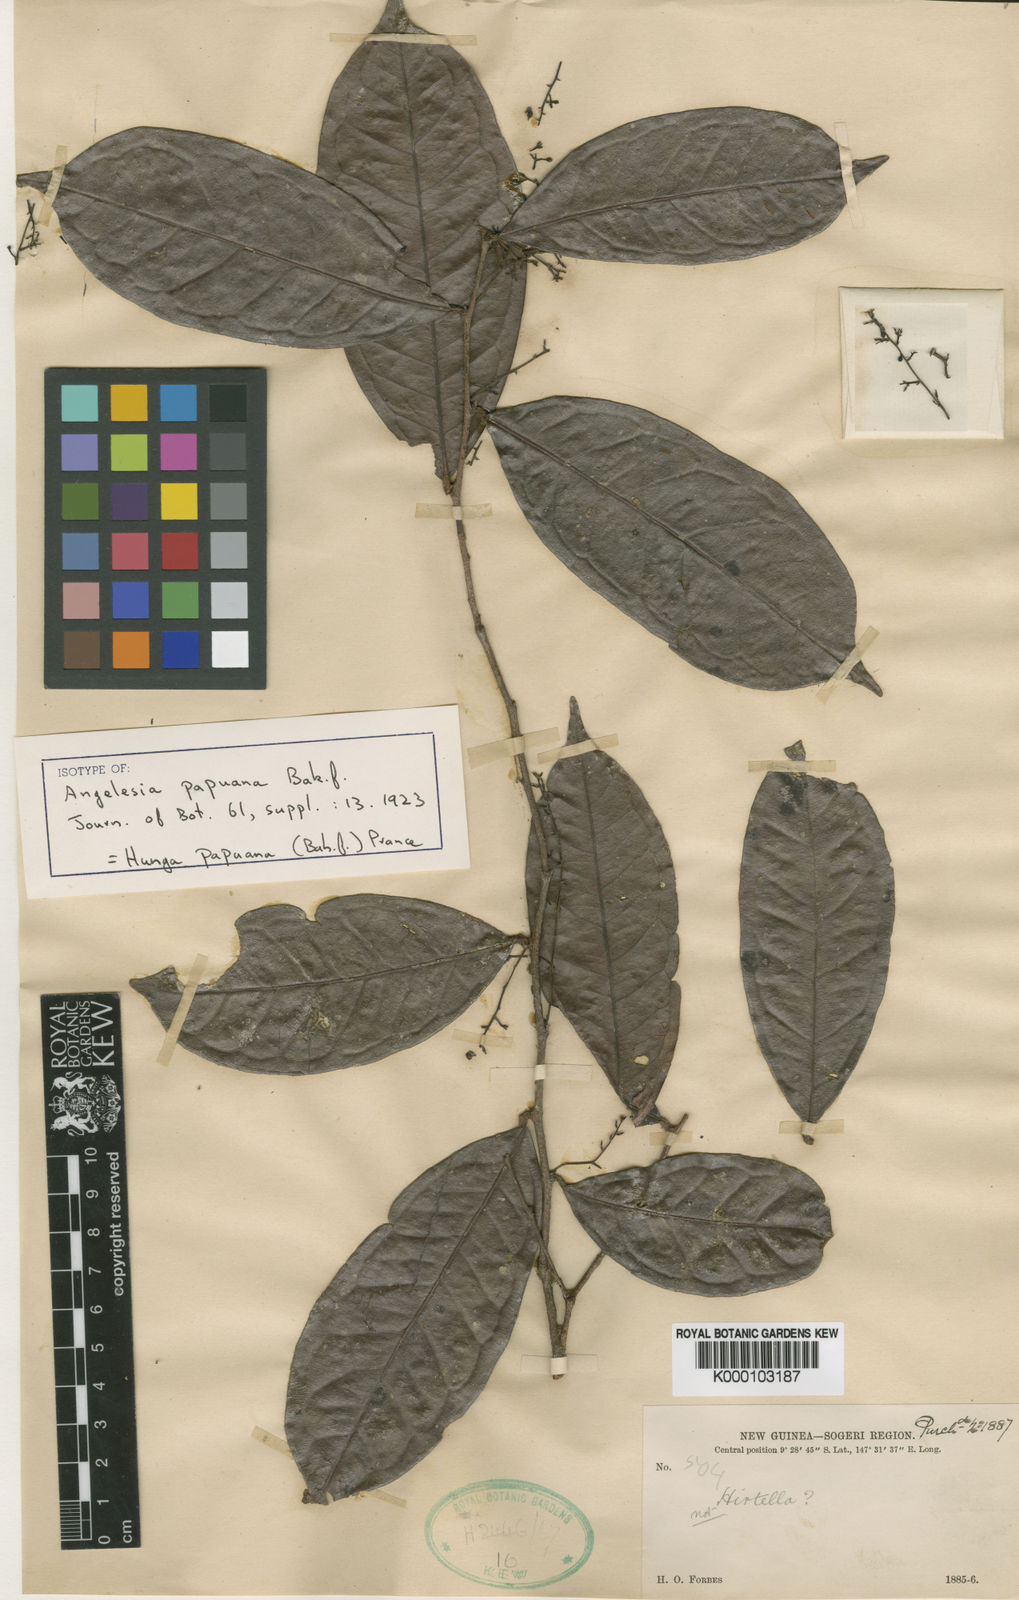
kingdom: Plantae
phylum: Tracheophyta
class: Magnoliopsida
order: Malpighiales
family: Chrysobalanaceae
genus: Hunga
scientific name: Hunga papuana
